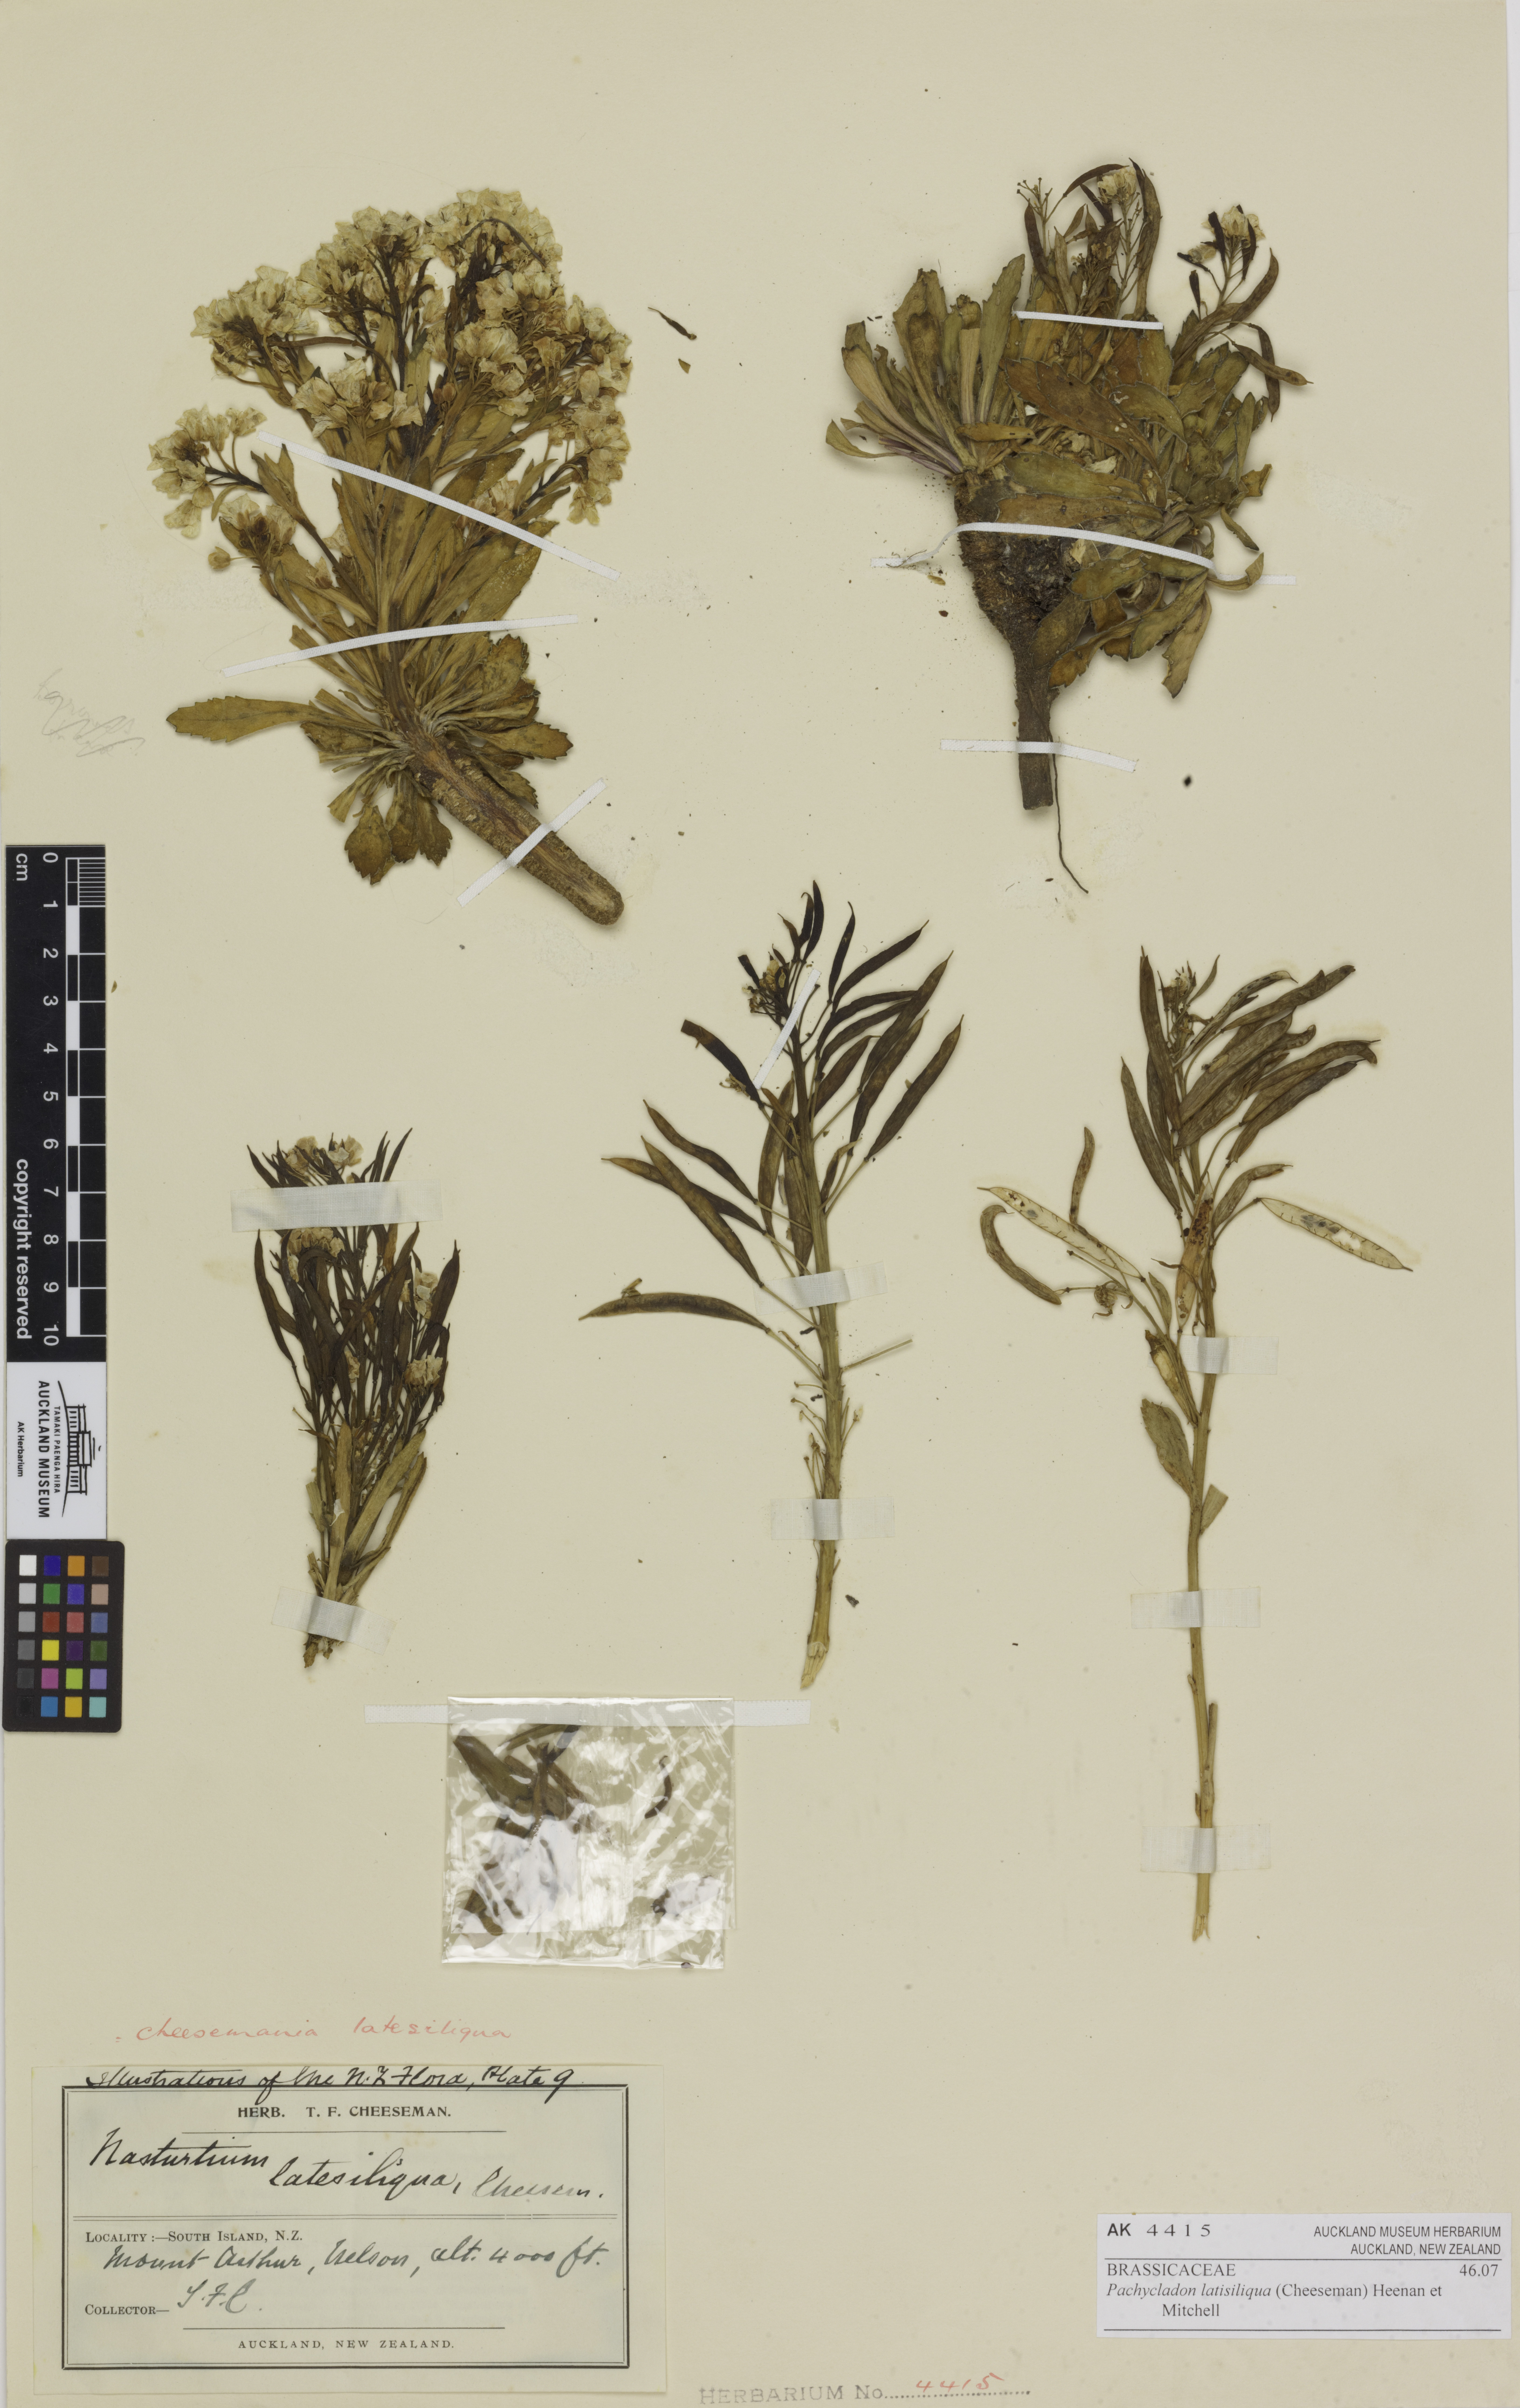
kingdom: Plantae
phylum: Tracheophyta
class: Magnoliopsida
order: Brassicales
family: Brassicaceae
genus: Pachycladon
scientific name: Pachycladon latisiliquum
